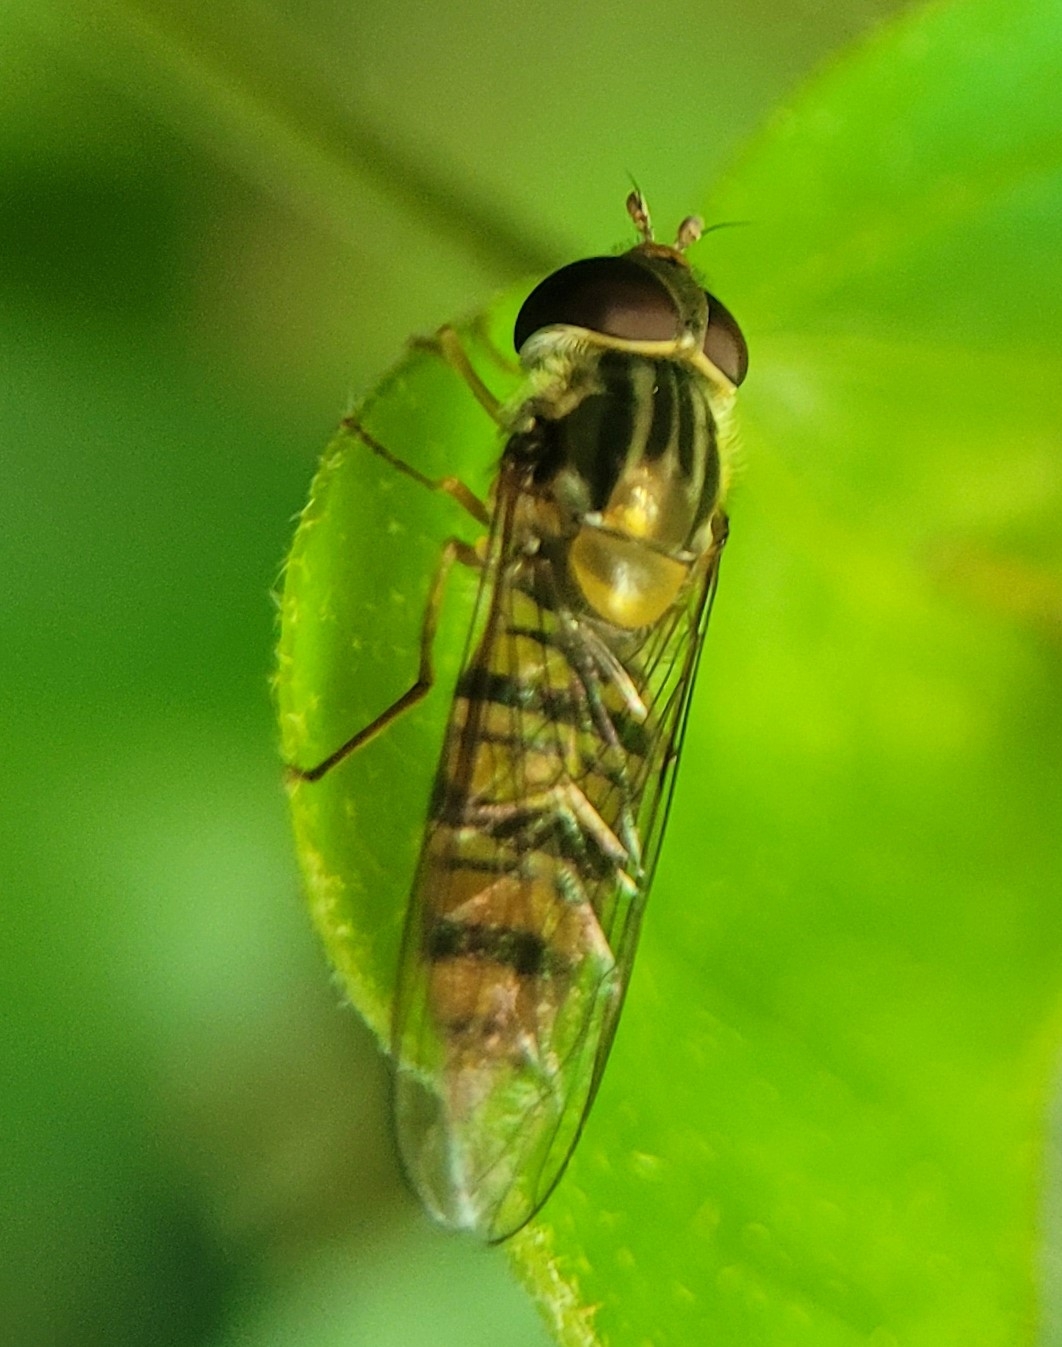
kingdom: Animalia
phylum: Arthropoda
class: Insecta
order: Diptera
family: Syrphidae
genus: Episyrphus
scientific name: Episyrphus balteatus
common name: Dobbeltbåndet svirreflue
